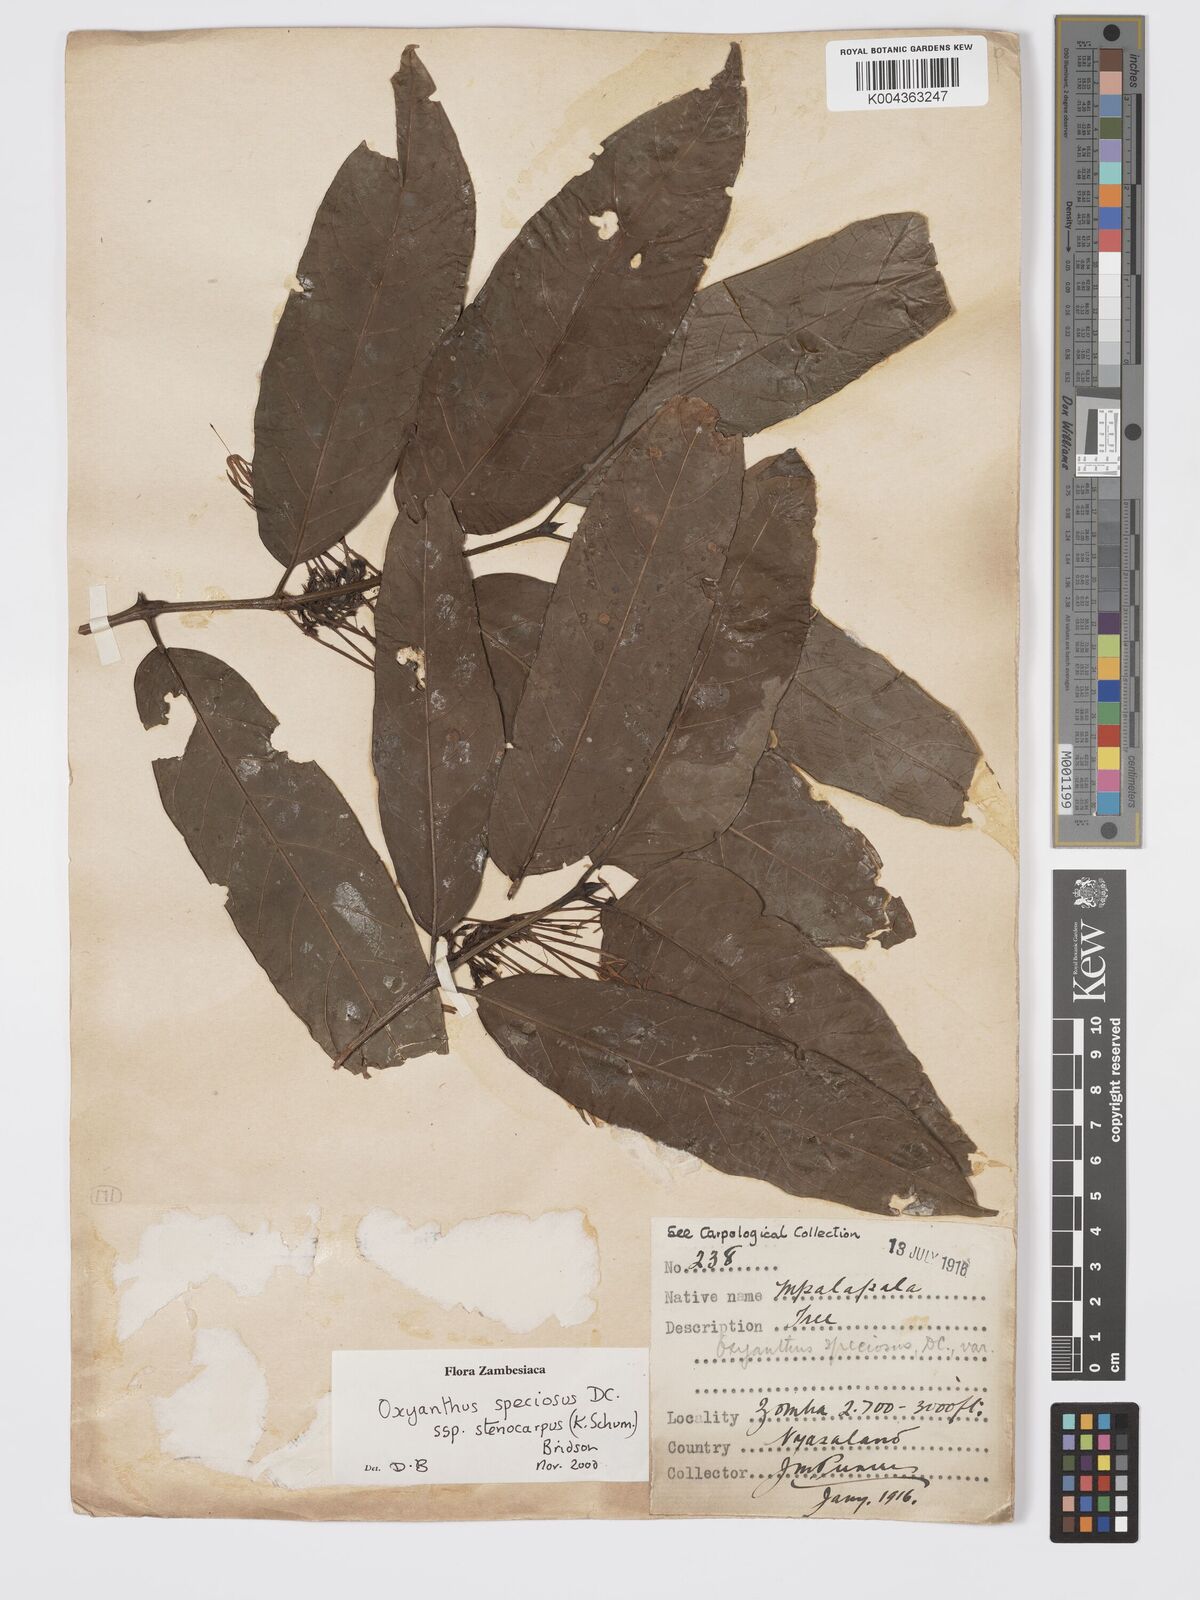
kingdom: Plantae
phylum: Tracheophyta
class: Magnoliopsida
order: Gentianales
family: Rubiaceae
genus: Oxyanthus
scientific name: Oxyanthus speciosus
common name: Whipstick loquat
